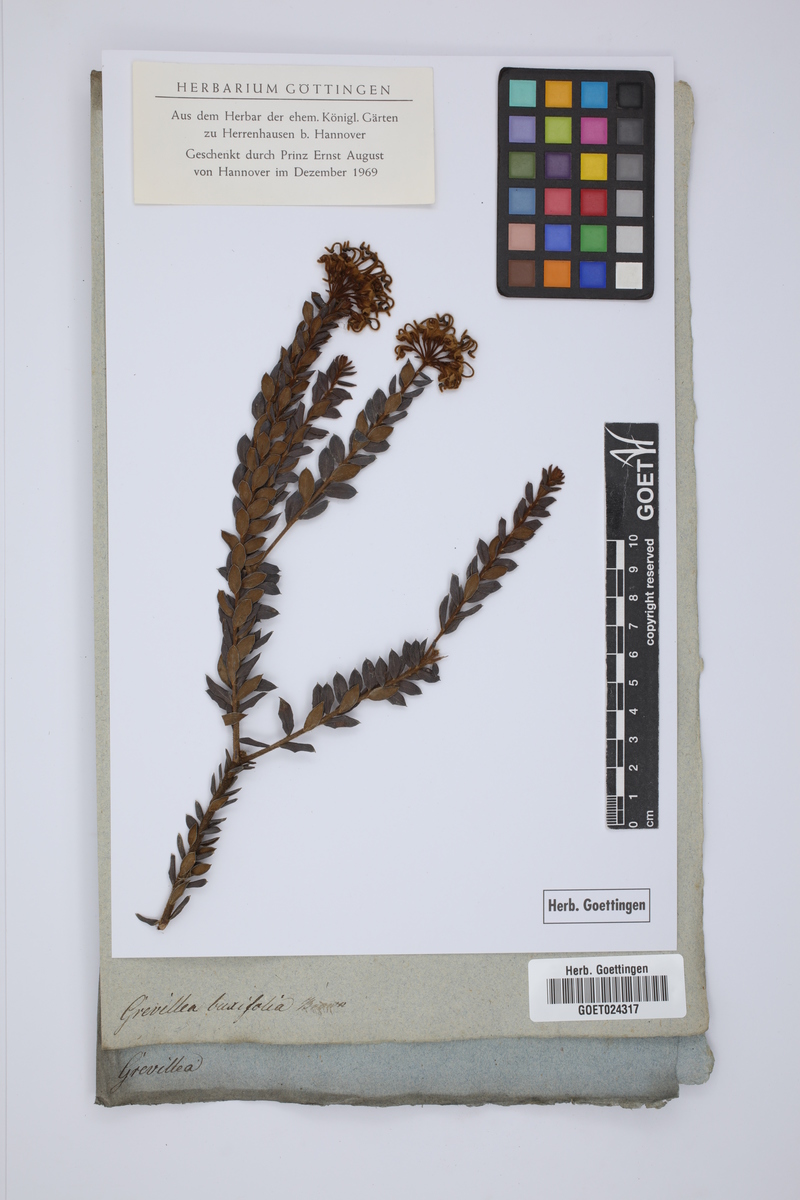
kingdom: Plantae
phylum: Tracheophyta
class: Magnoliopsida
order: Proteales
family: Proteaceae
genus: Grevillea
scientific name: Grevillea buxifolia
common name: Grey spiderflower
